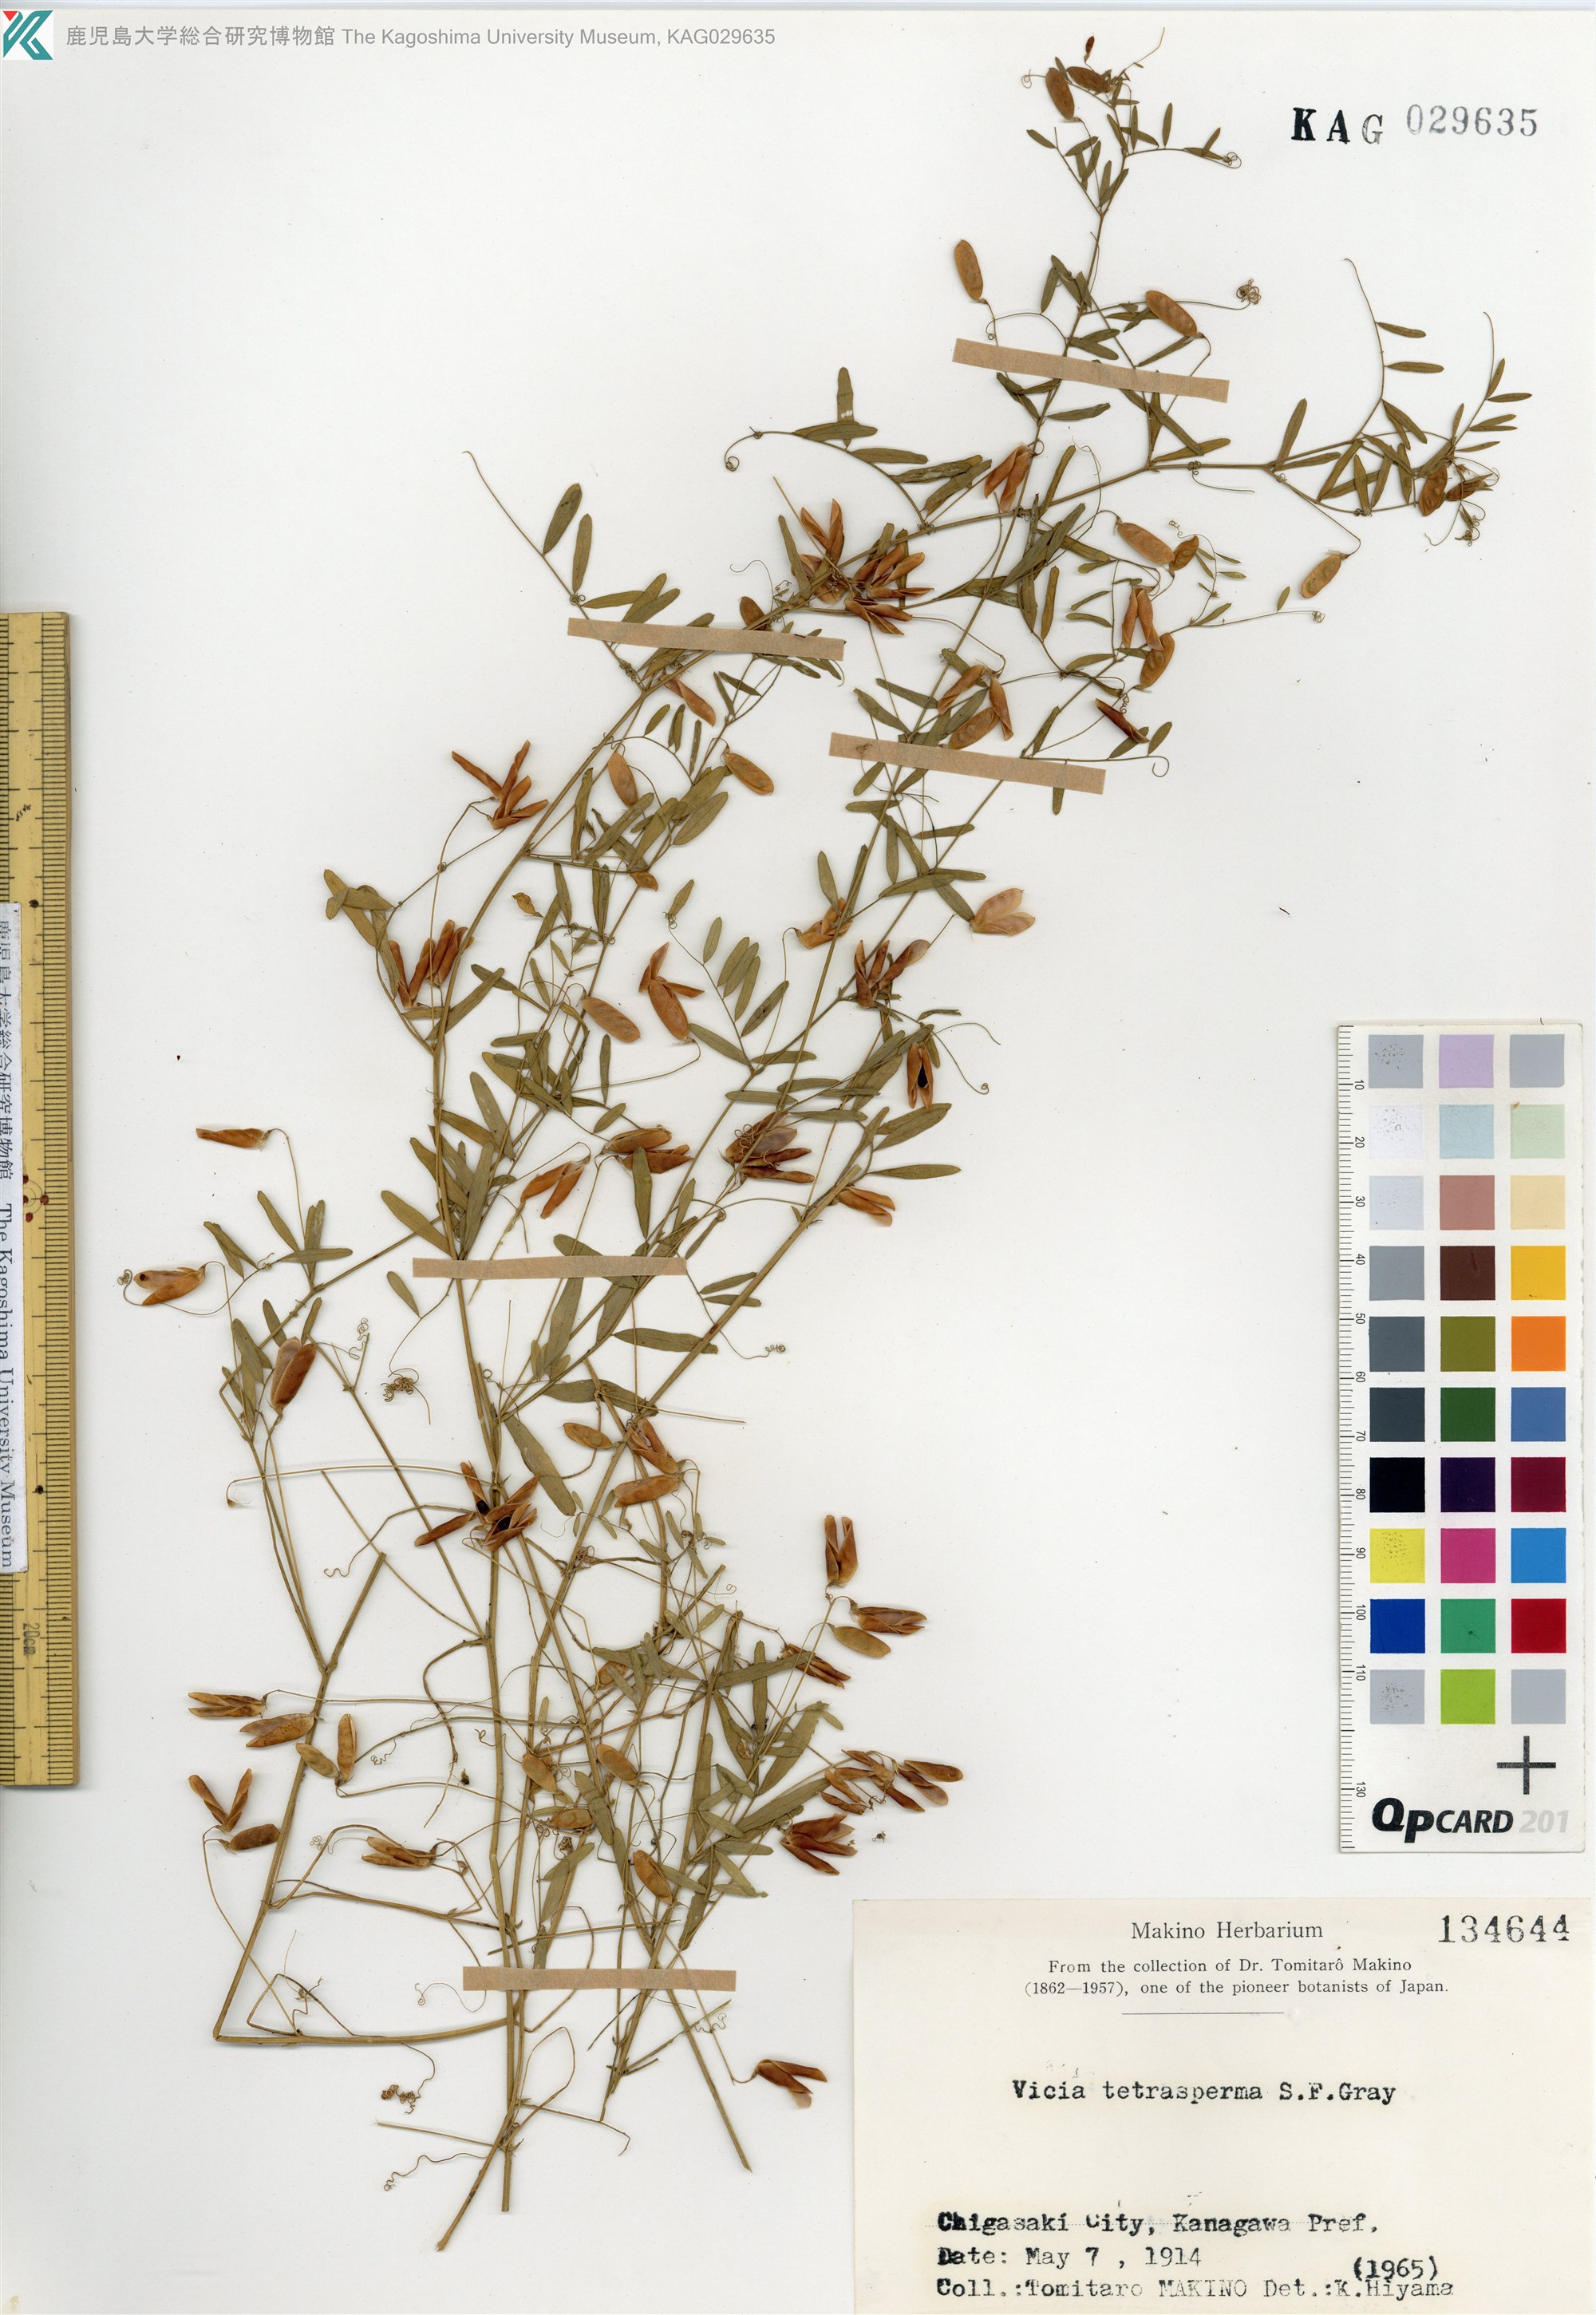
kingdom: Plantae
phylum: Tracheophyta
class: Magnoliopsida
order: Fabales
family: Fabaceae
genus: Vicia
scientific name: Vicia tetrasperma
